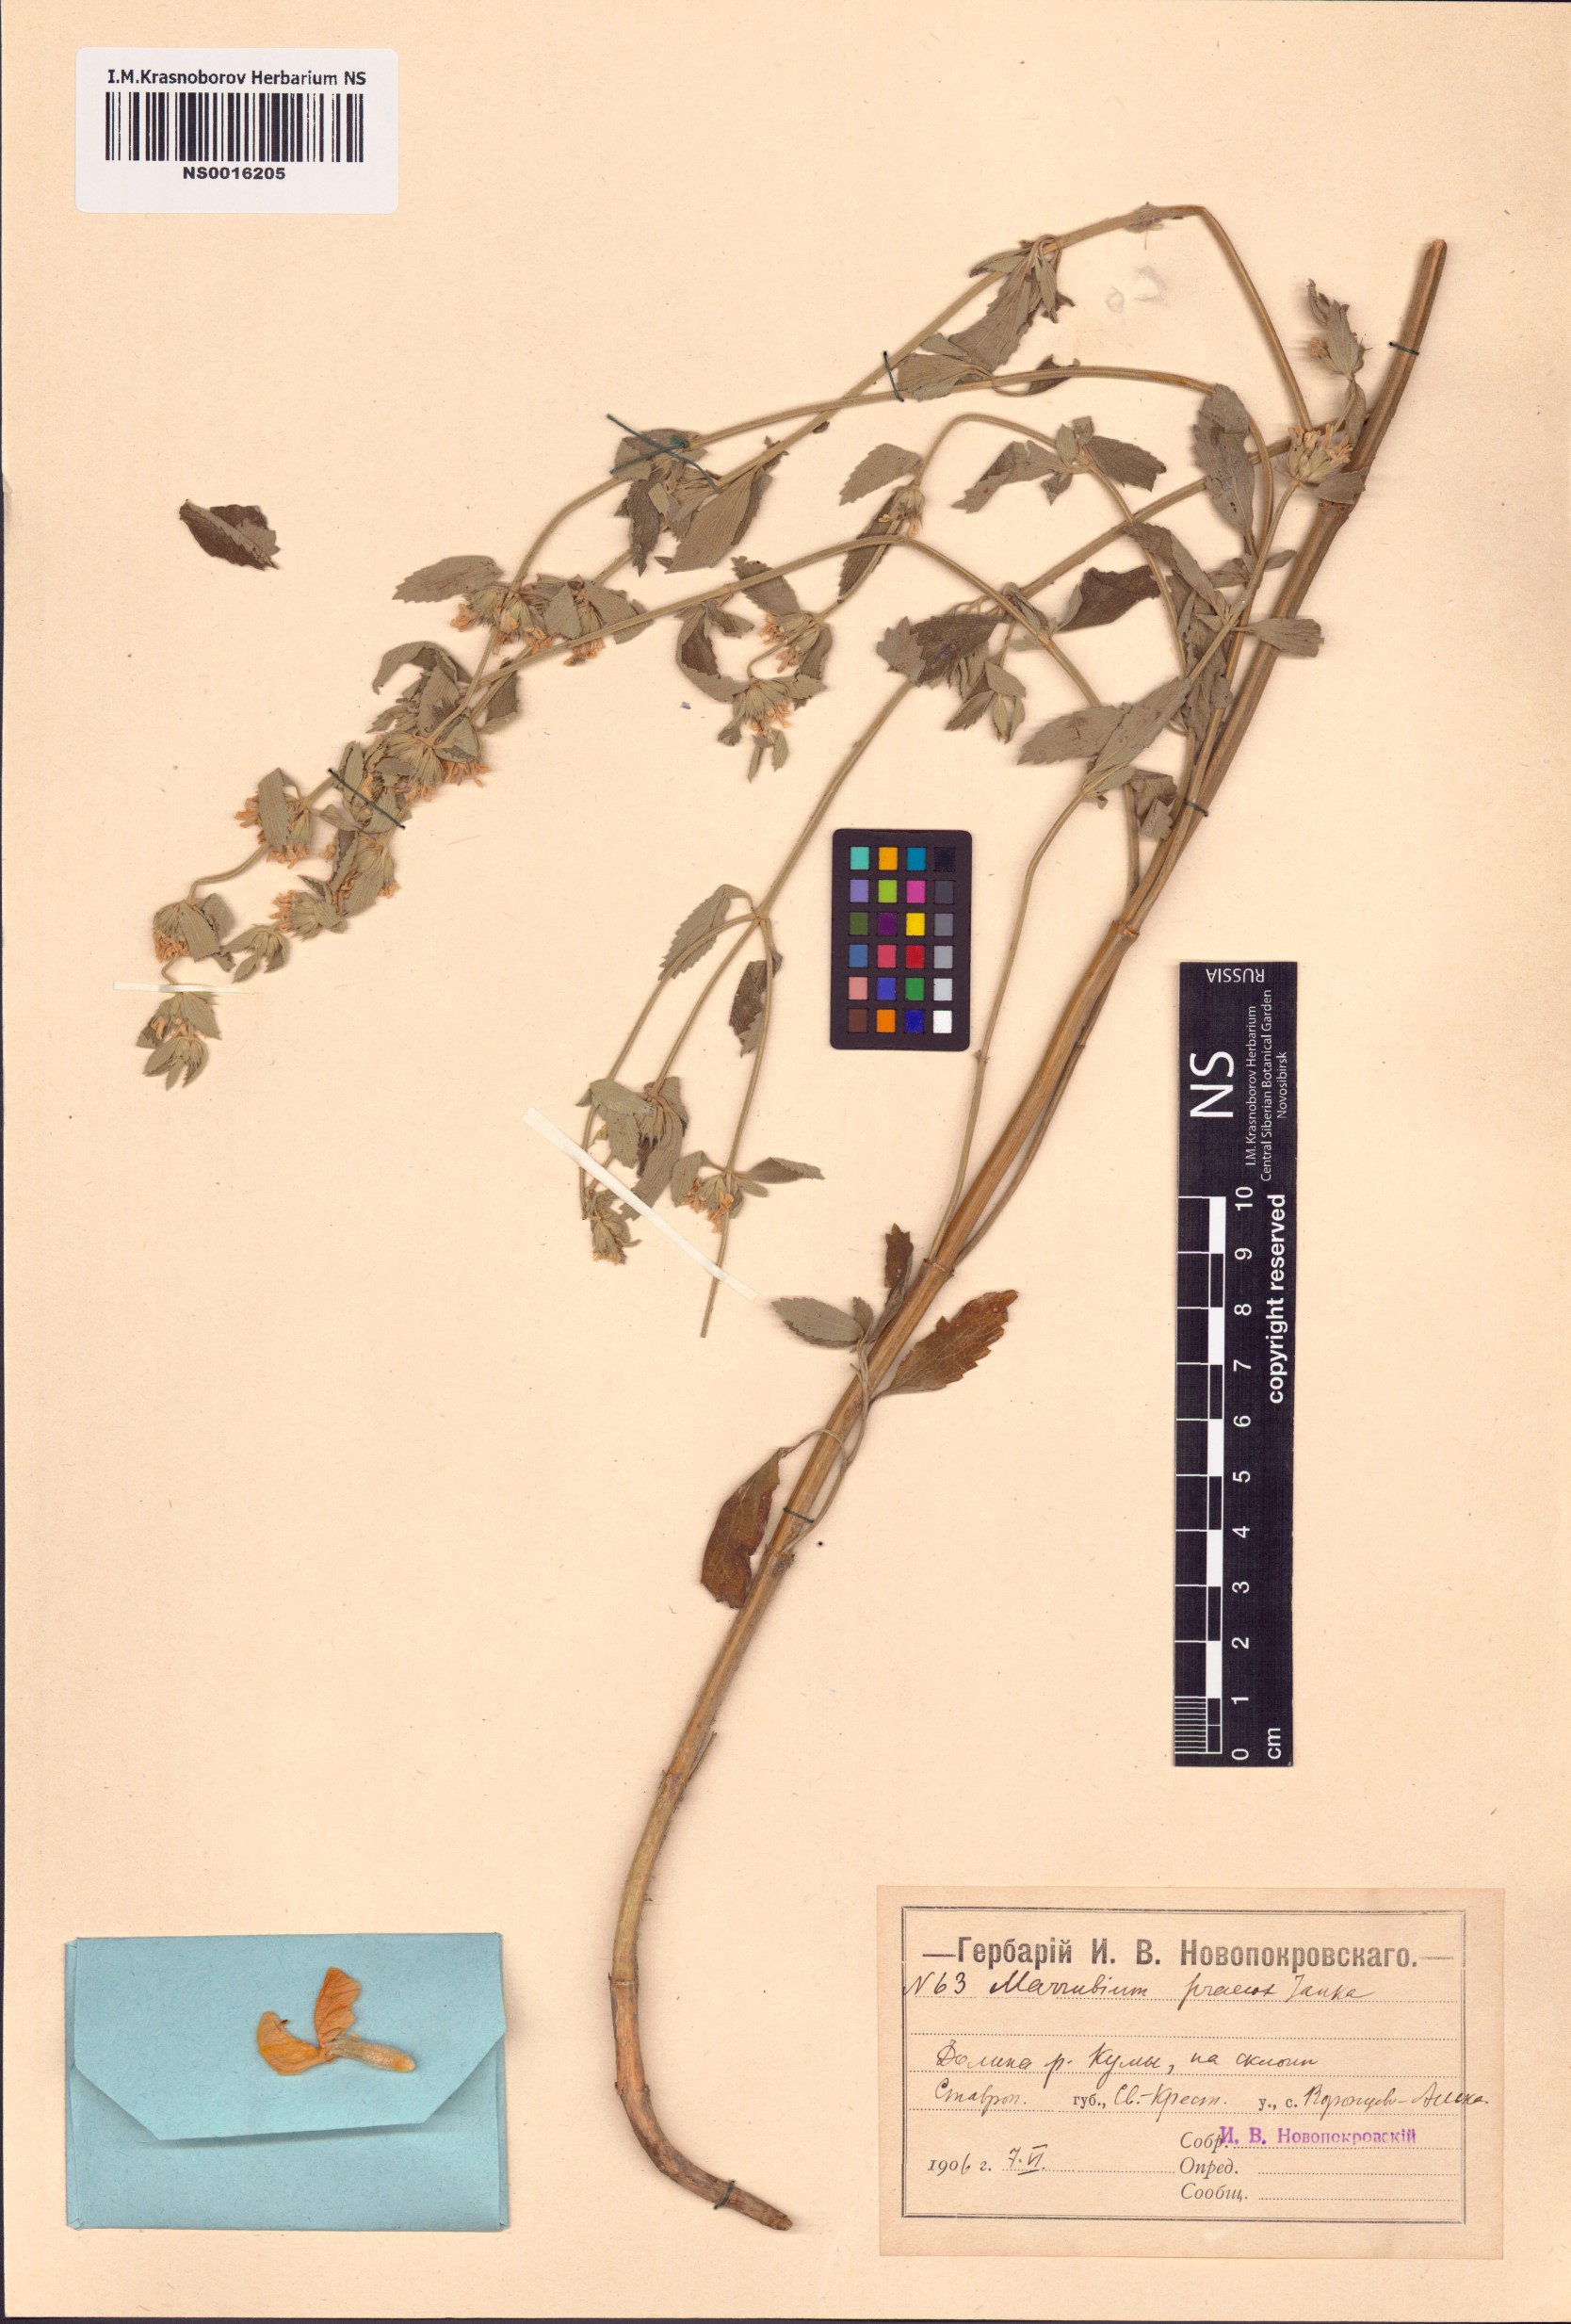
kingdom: Plantae
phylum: Tracheophyta
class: Magnoliopsida
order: Lamiales
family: Lamiaceae
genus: Marrubium
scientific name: Marrubium peregrinum
